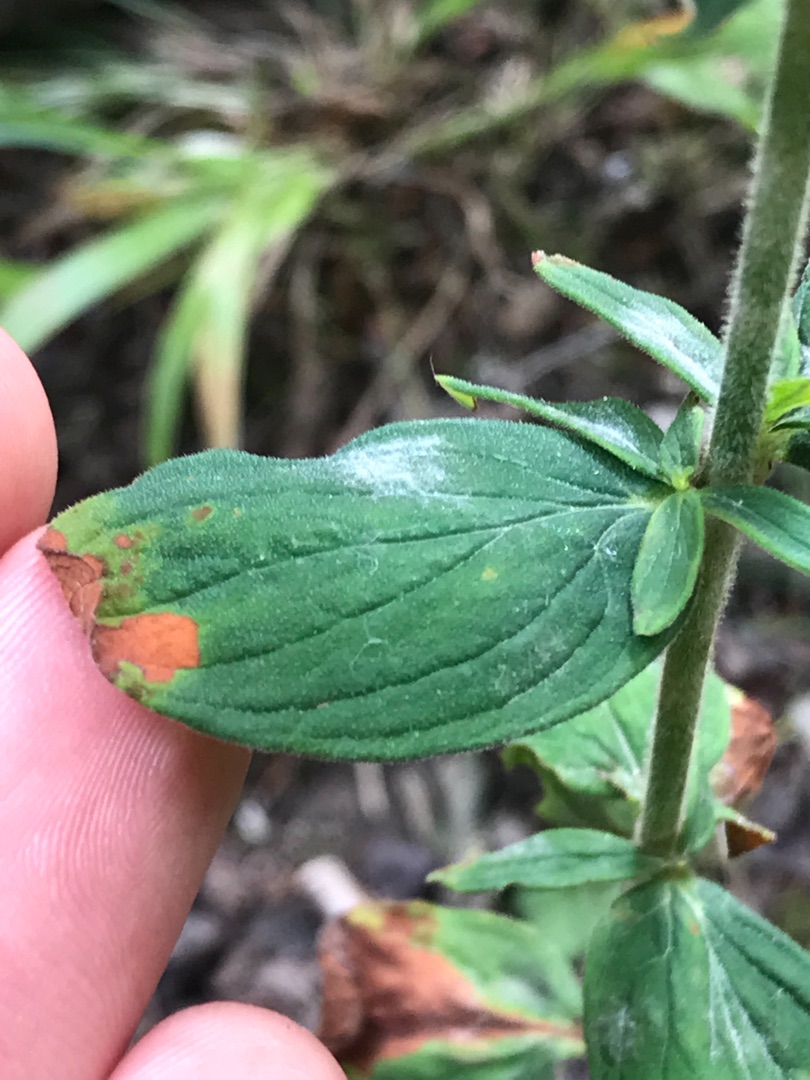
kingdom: Plantae
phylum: Tracheophyta
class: Magnoliopsida
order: Malpighiales
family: Hypericaceae
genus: Hypericum
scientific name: Hypericum hirsutum
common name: Lådden perikon
